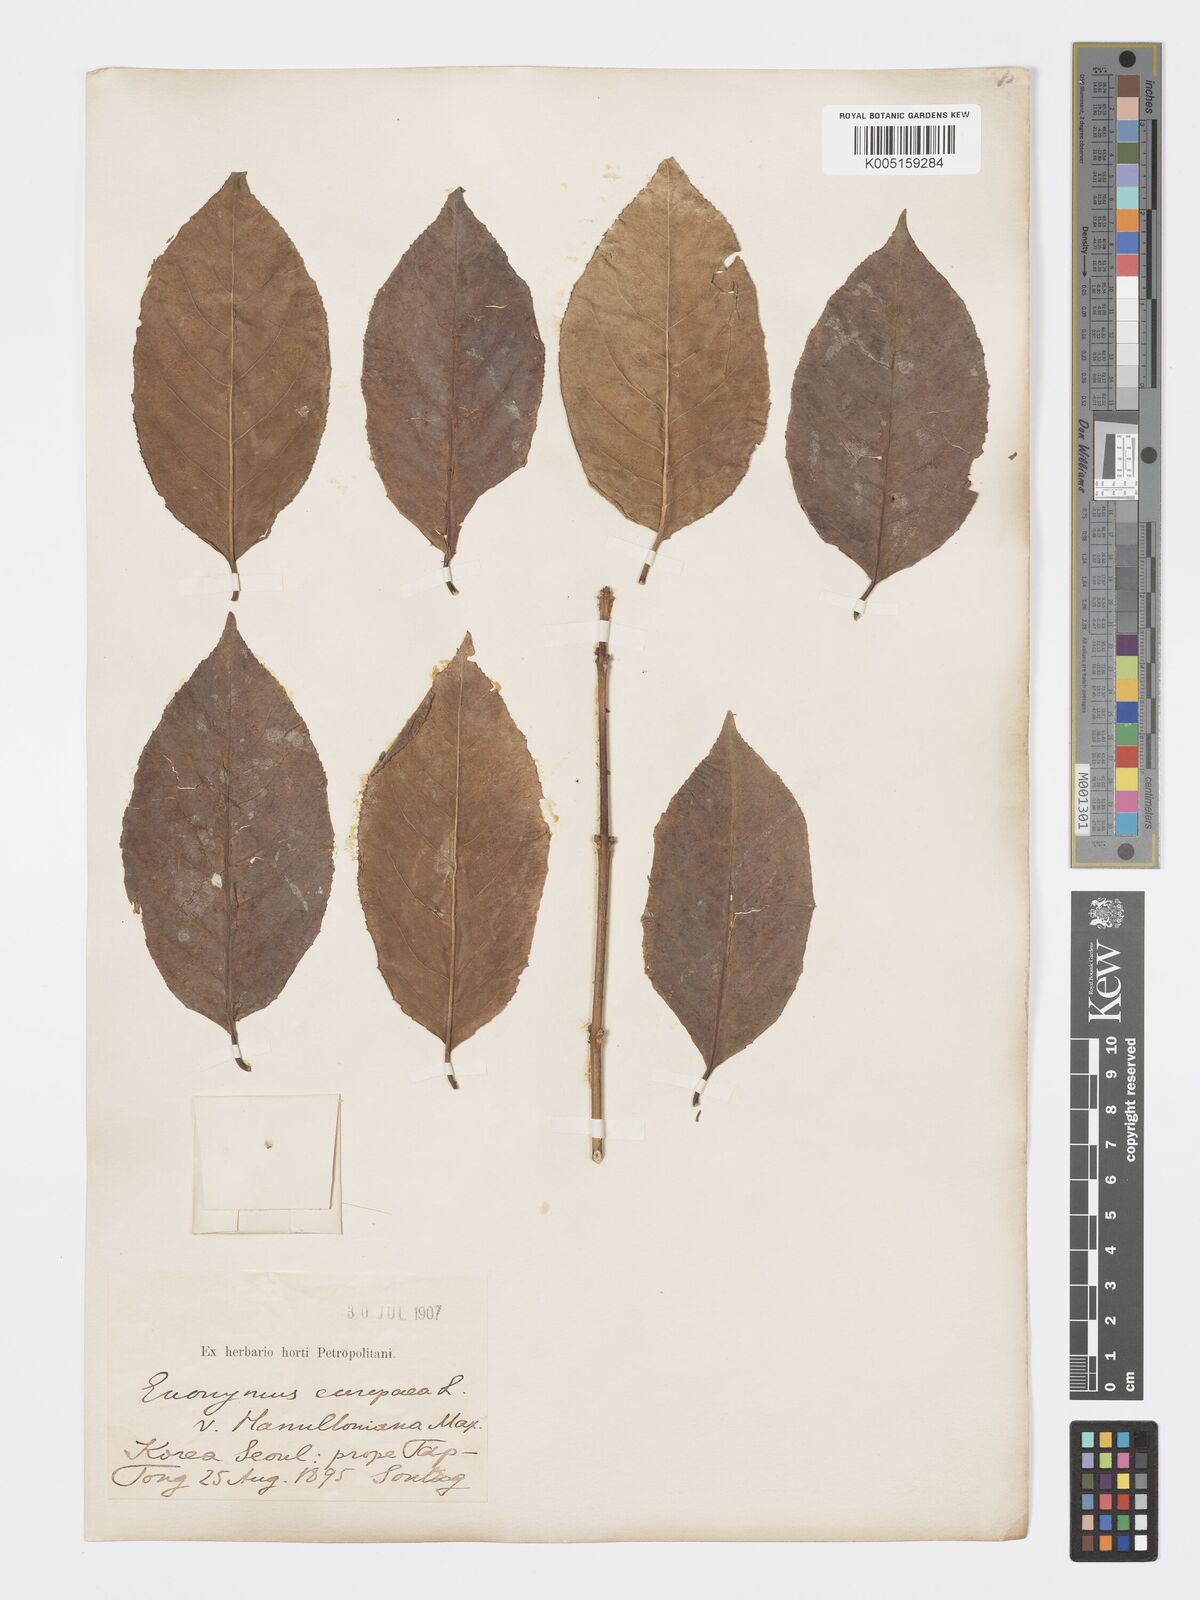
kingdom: Plantae
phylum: Tracheophyta
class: Magnoliopsida
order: Celastrales
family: Celastraceae
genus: Euonymus
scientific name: Euonymus hamiltonianus
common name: Hamilton's spindletree
